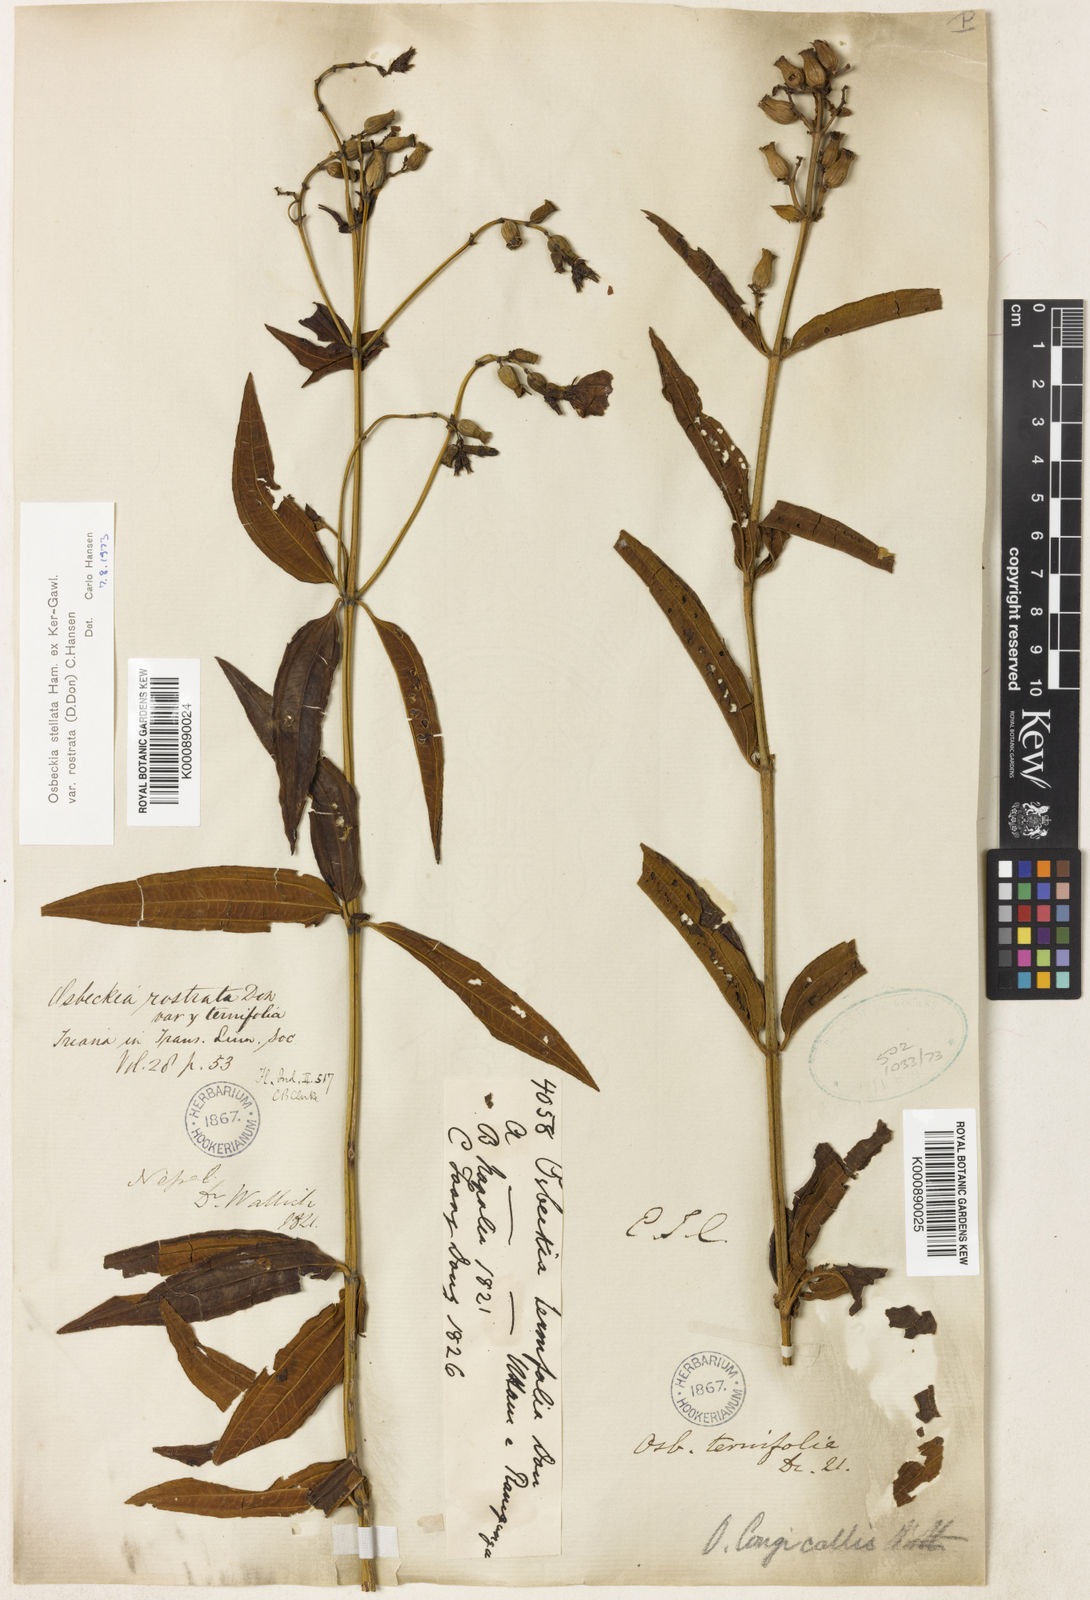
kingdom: Plantae
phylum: Tracheophyta
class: Magnoliopsida
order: Myrtales
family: Melastomataceae
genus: Osbeckia
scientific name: Osbeckia rostrata
